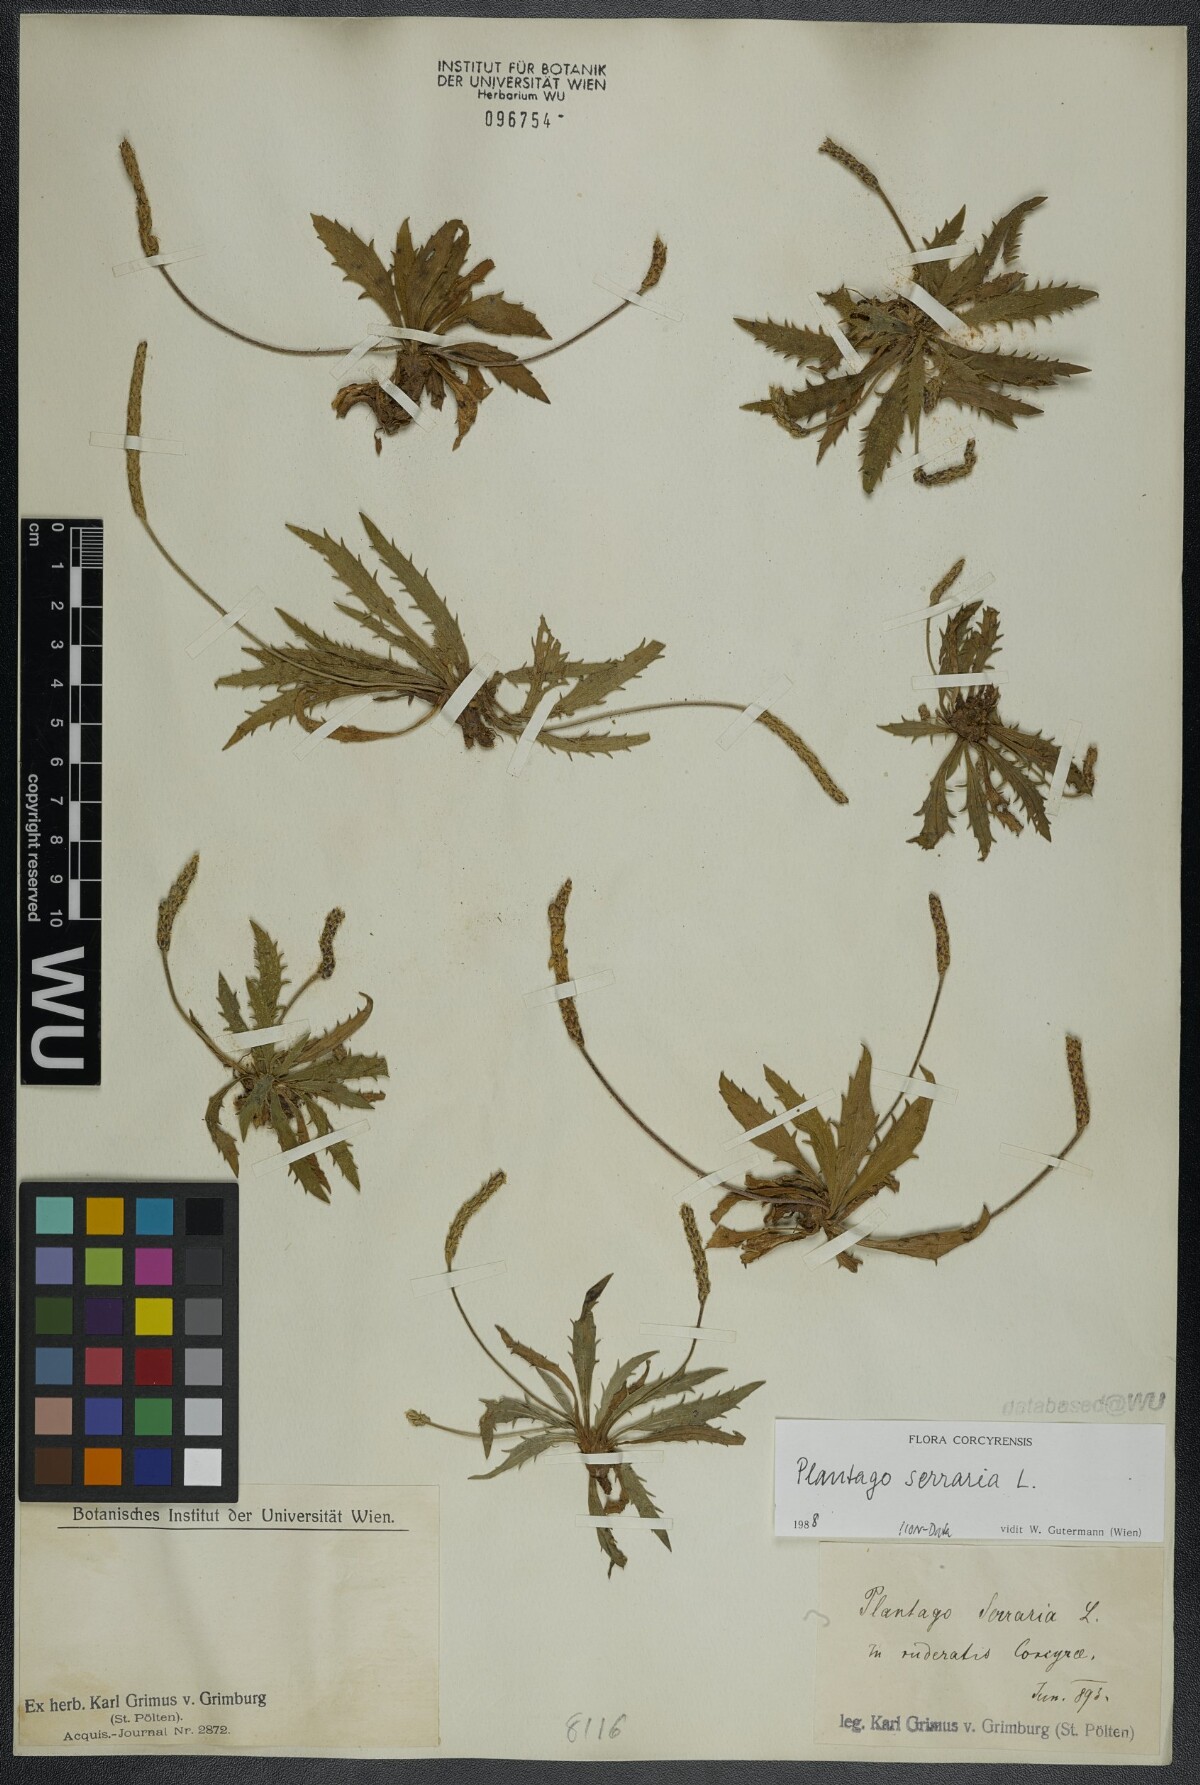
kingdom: Plantae
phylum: Tracheophyta
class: Magnoliopsida
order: Lamiales
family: Plantaginaceae
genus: Plantago
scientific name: Plantago serraria
